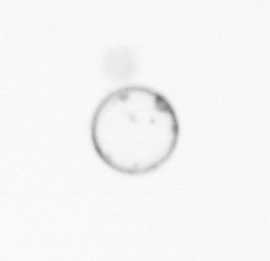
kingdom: Chromista
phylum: Myzozoa
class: Dinophyceae
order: Noctilucales
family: Noctilucaceae
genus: Noctiluca
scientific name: Noctiluca scintillans
